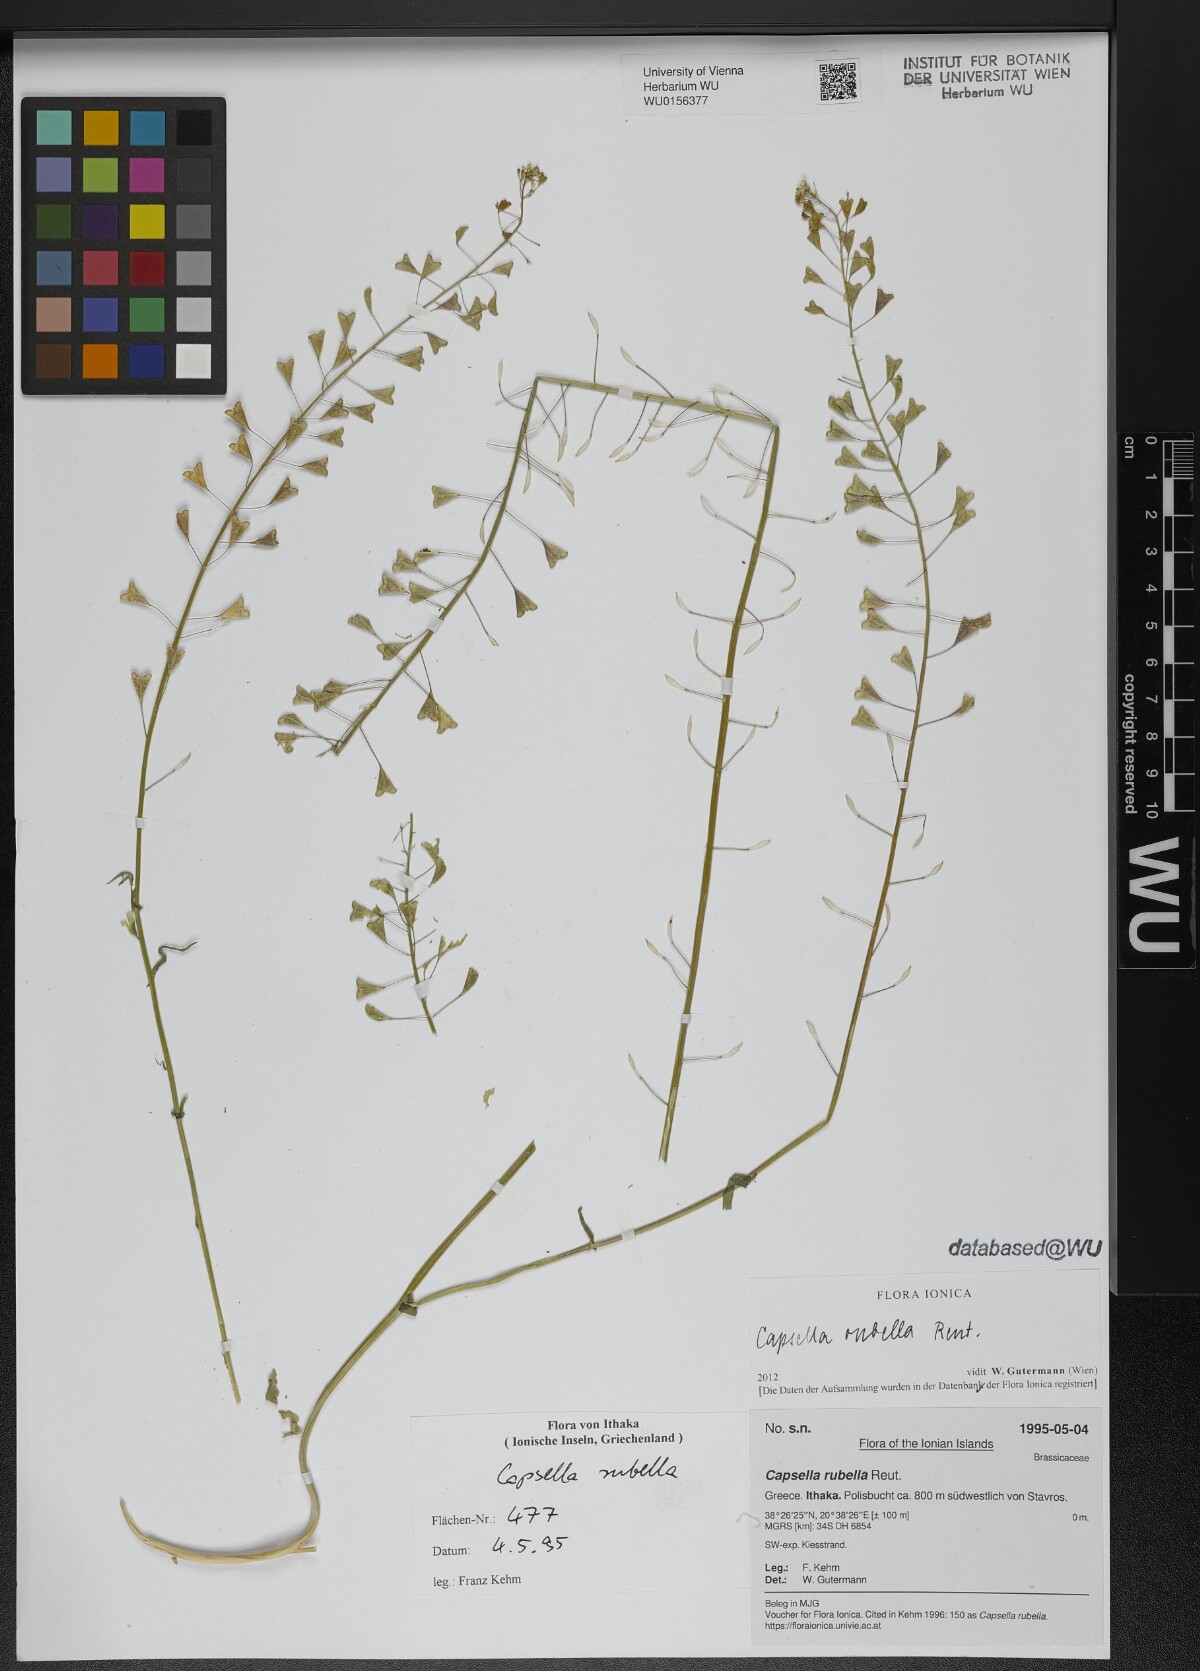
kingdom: Plantae
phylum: Tracheophyta
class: Magnoliopsida
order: Brassicales
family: Brassicaceae
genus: Capsella
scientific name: Capsella rubella
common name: Pink shepherd's-purse
